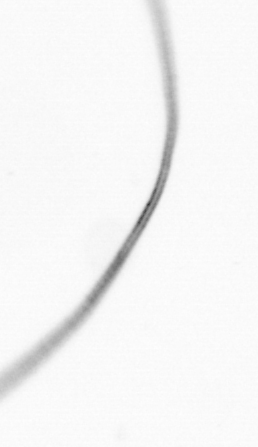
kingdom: Chromista
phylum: Ochrophyta
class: Bacillariophyceae
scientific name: Bacillariophyceae
